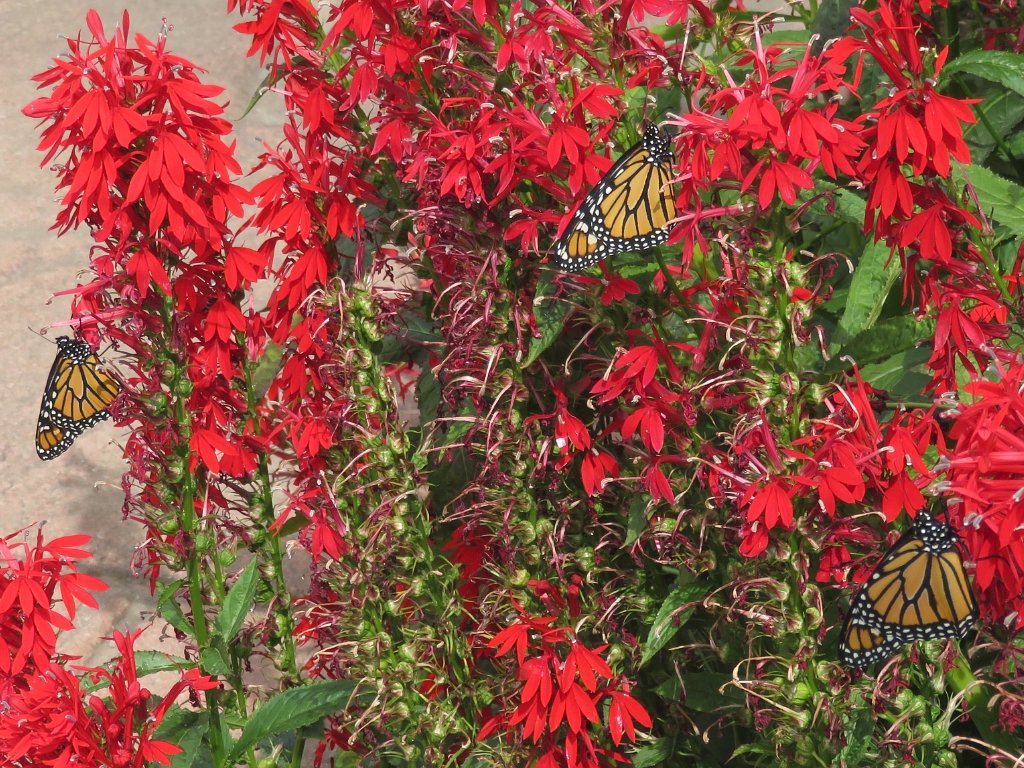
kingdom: Animalia
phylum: Arthropoda
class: Insecta
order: Lepidoptera
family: Nymphalidae
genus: Danaus
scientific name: Danaus plexippus
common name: Monarch
